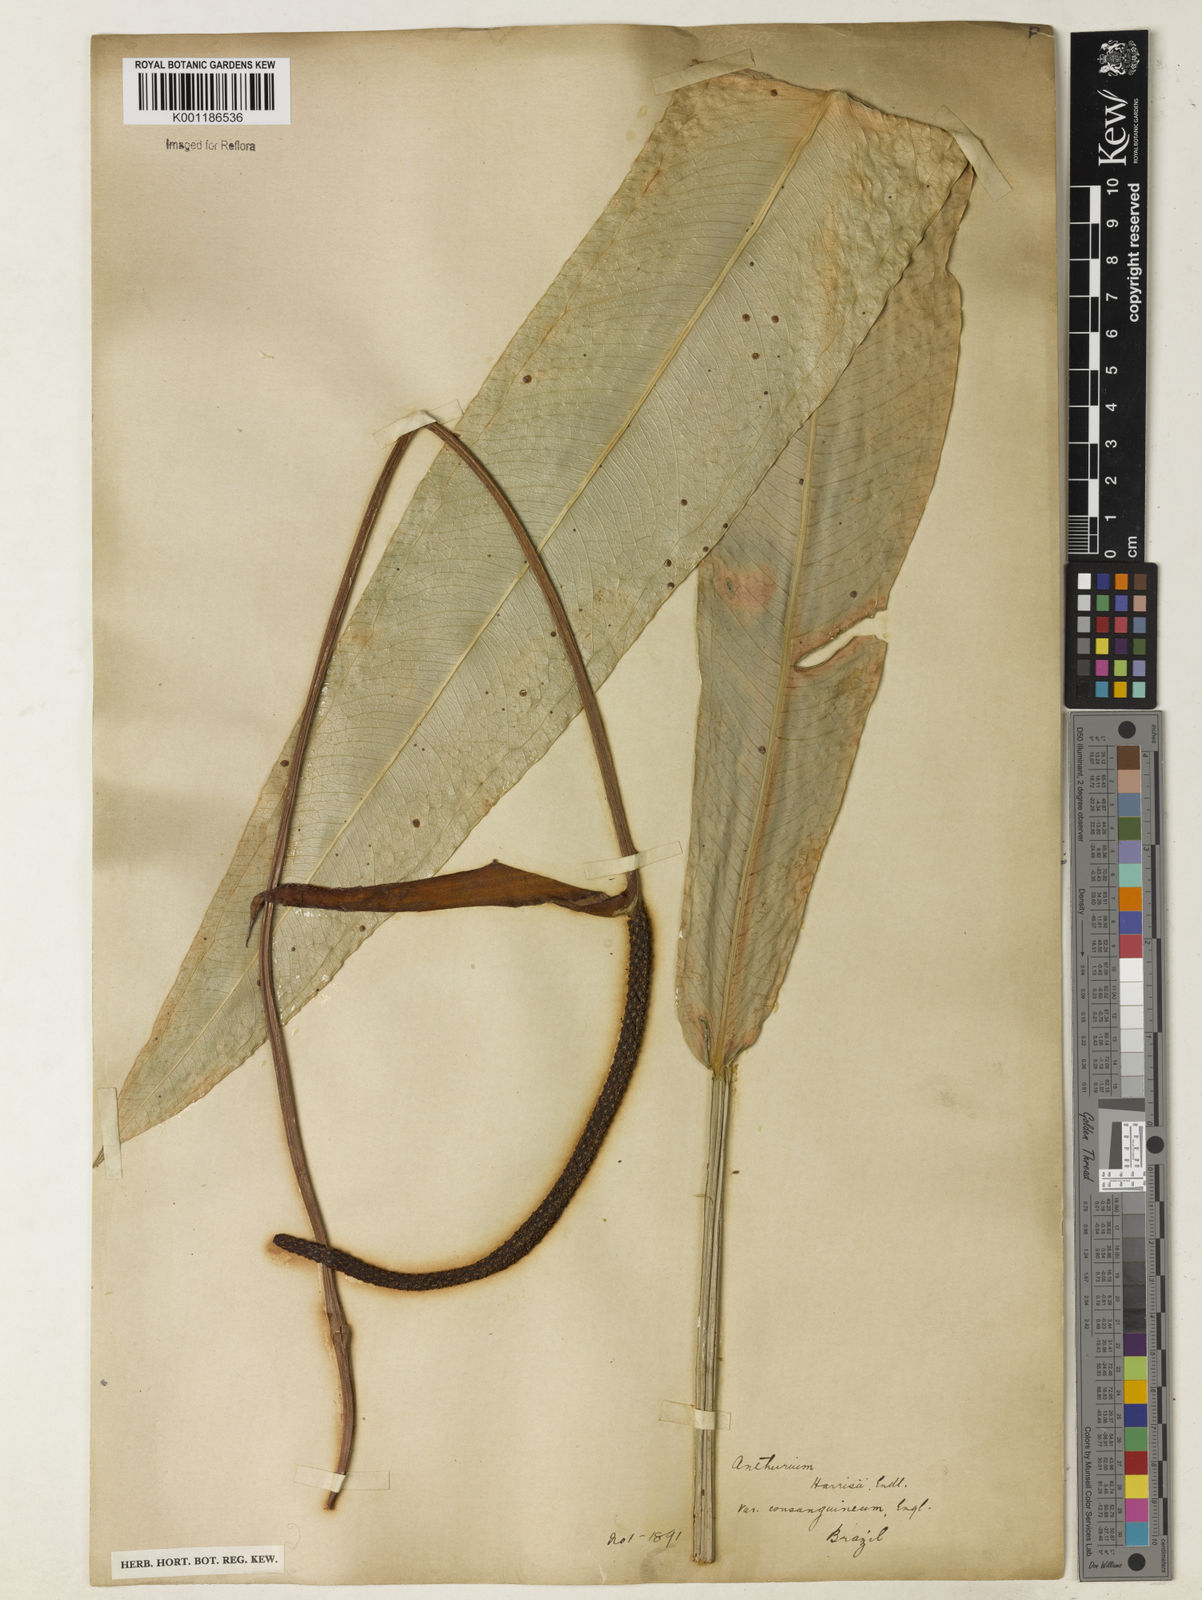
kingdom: Plantae
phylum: Tracheophyta
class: Liliopsida
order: Alismatales
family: Araceae
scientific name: Araceae
